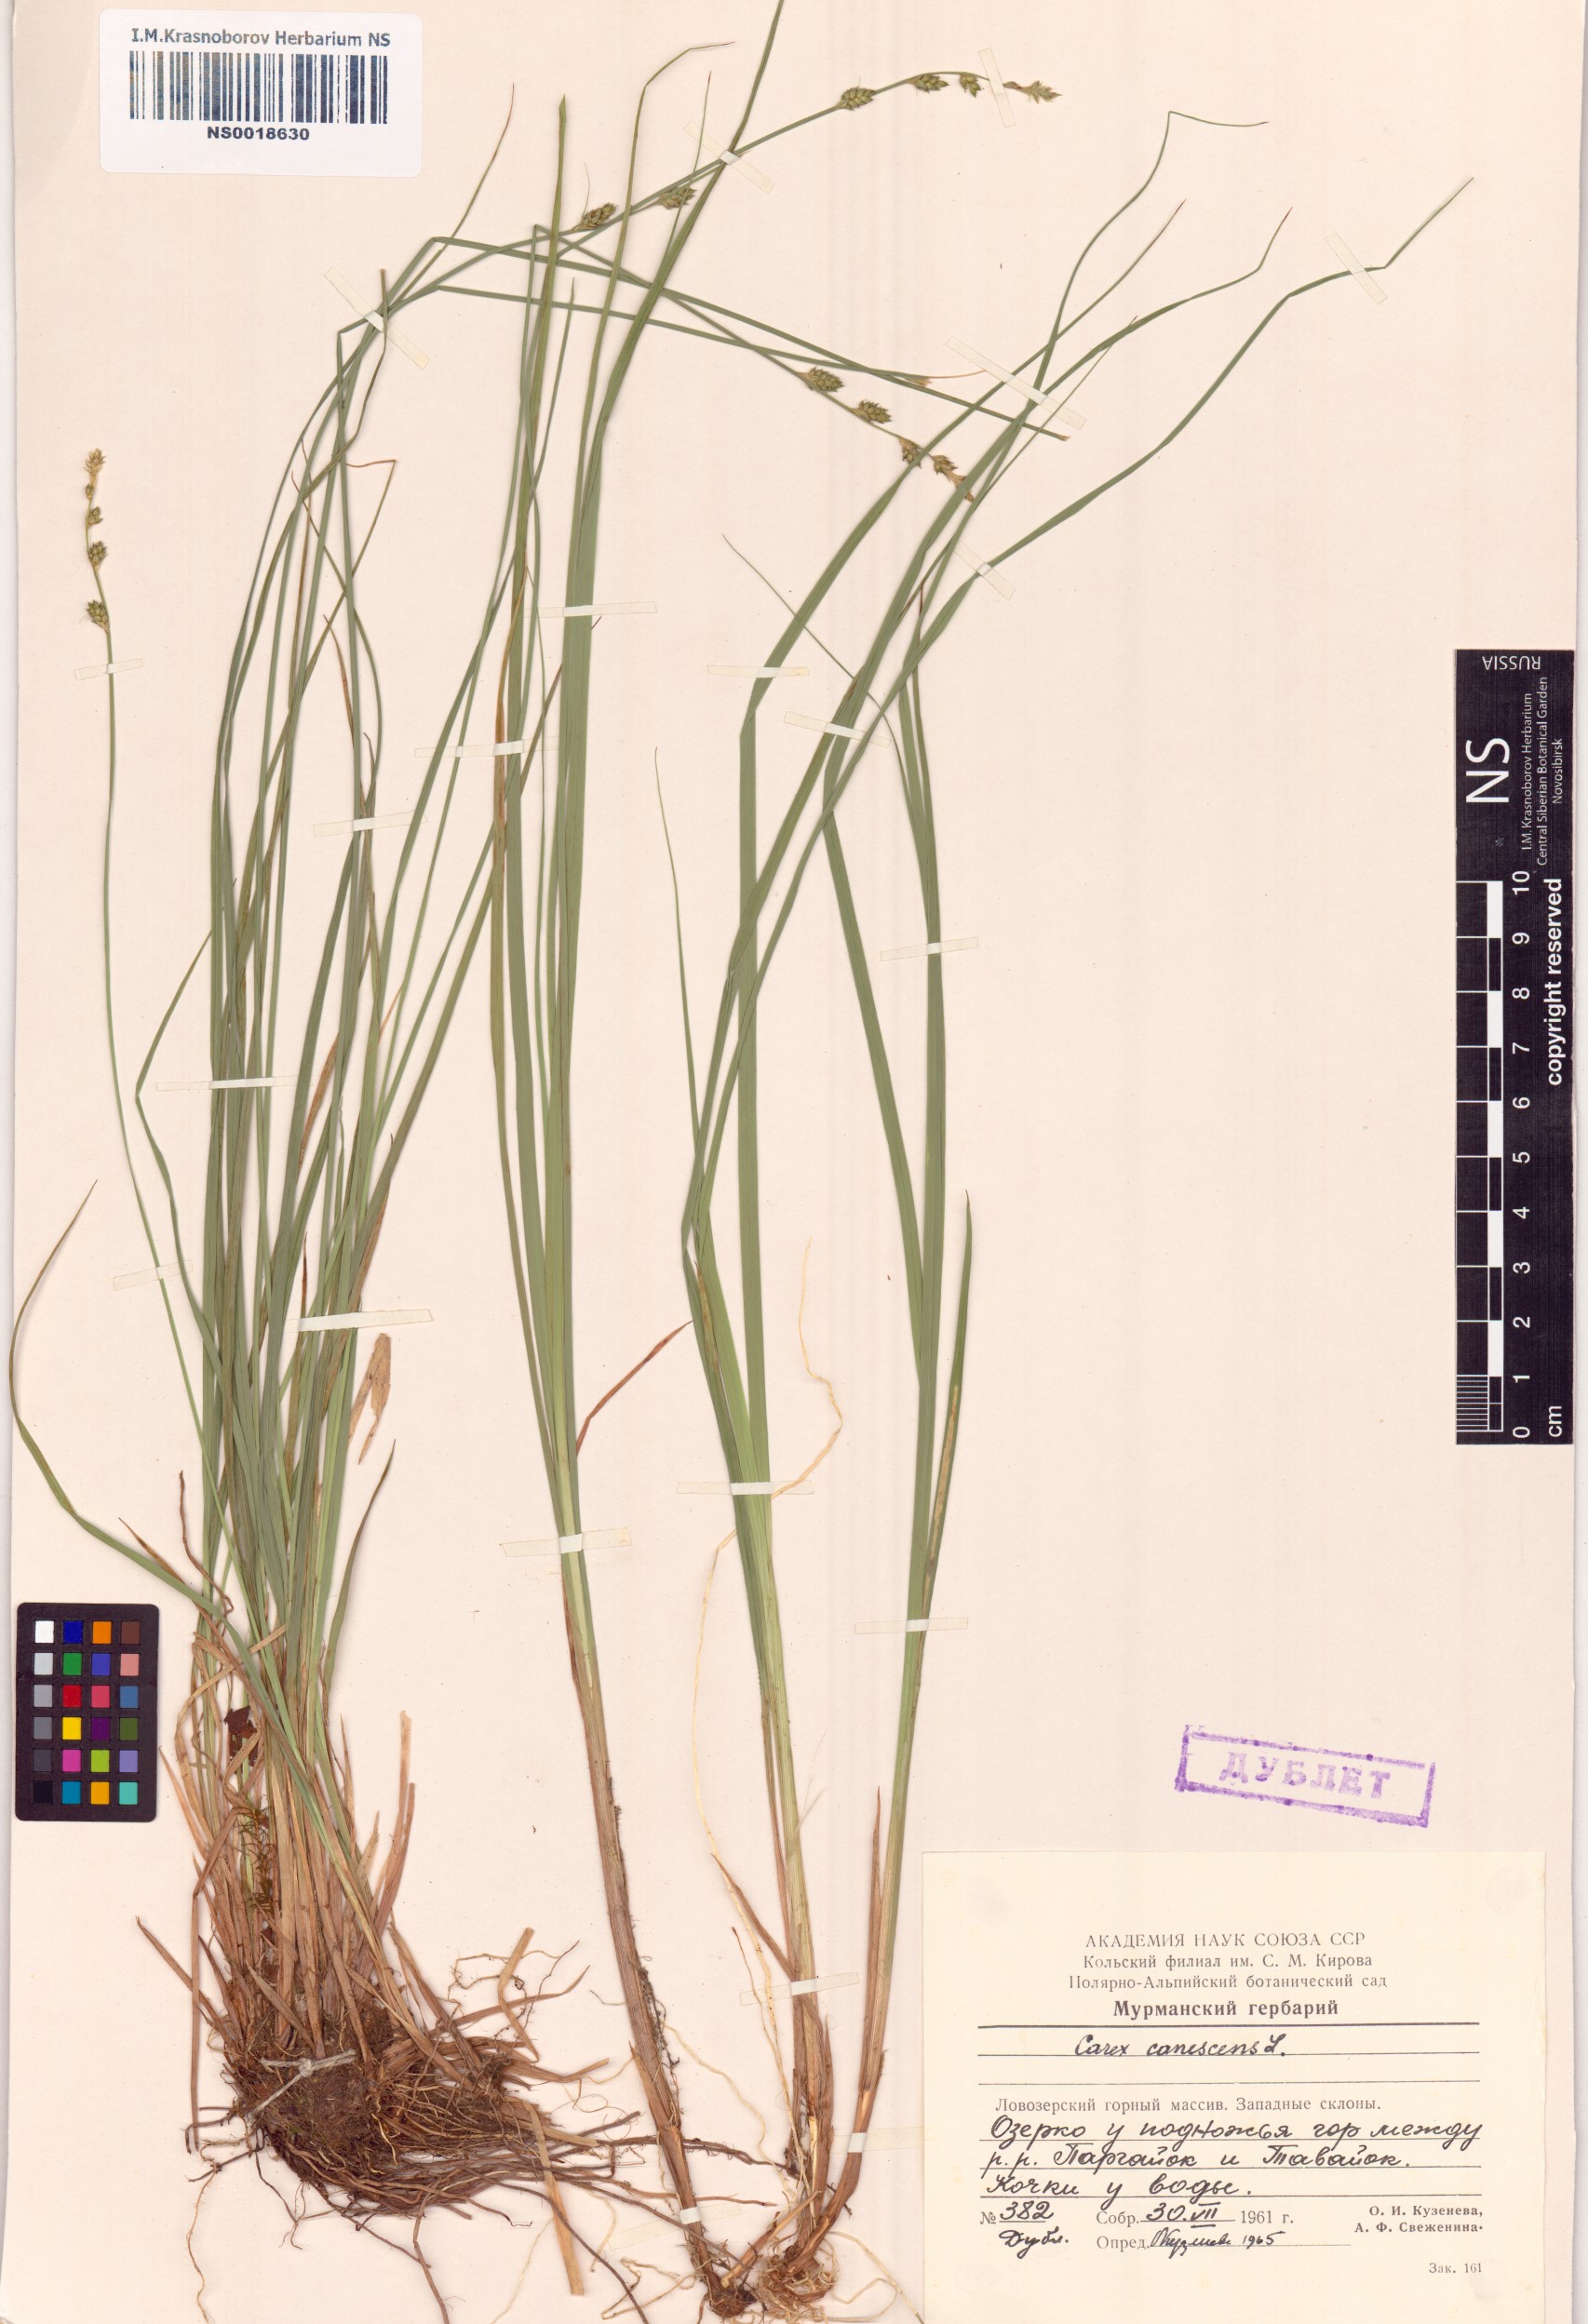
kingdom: Plantae
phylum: Tracheophyta
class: Liliopsida
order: Poales
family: Cyperaceae
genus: Carex
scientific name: Carex canescens
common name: White sedge
